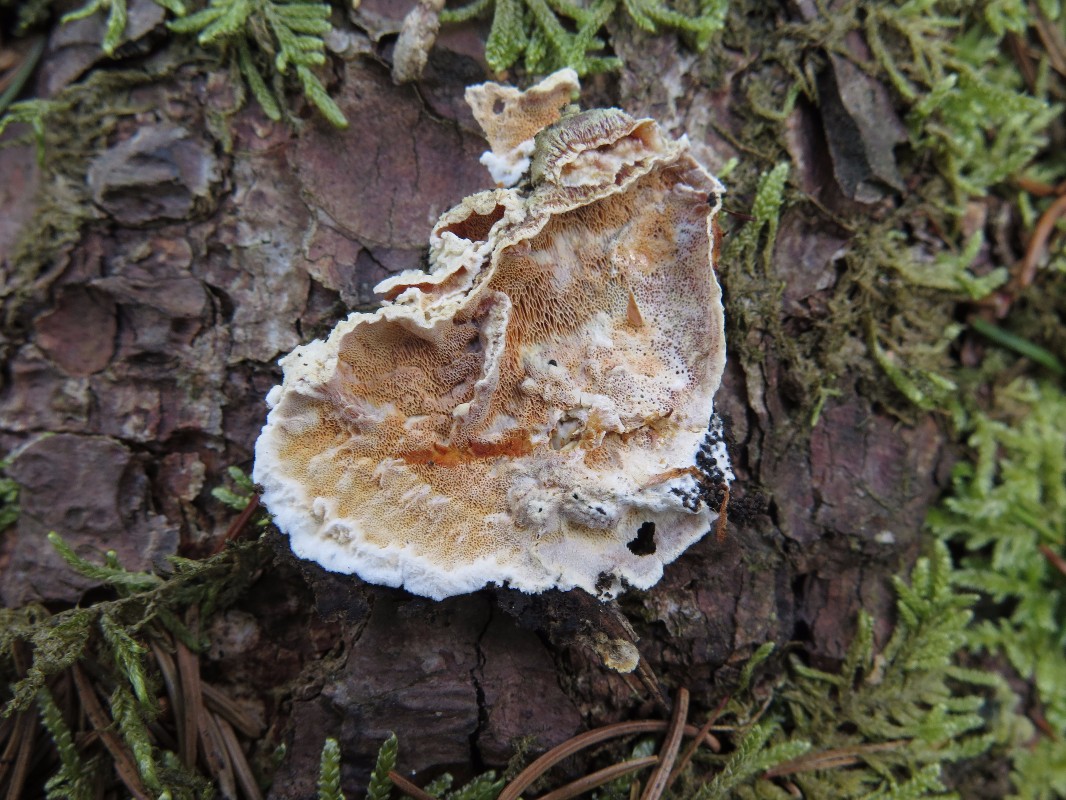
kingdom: Fungi
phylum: Basidiomycota
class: Agaricomycetes
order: Polyporales
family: Incrustoporiaceae
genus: Skeletocutis
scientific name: Skeletocutis amorpha
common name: orange krystalporesvamp
